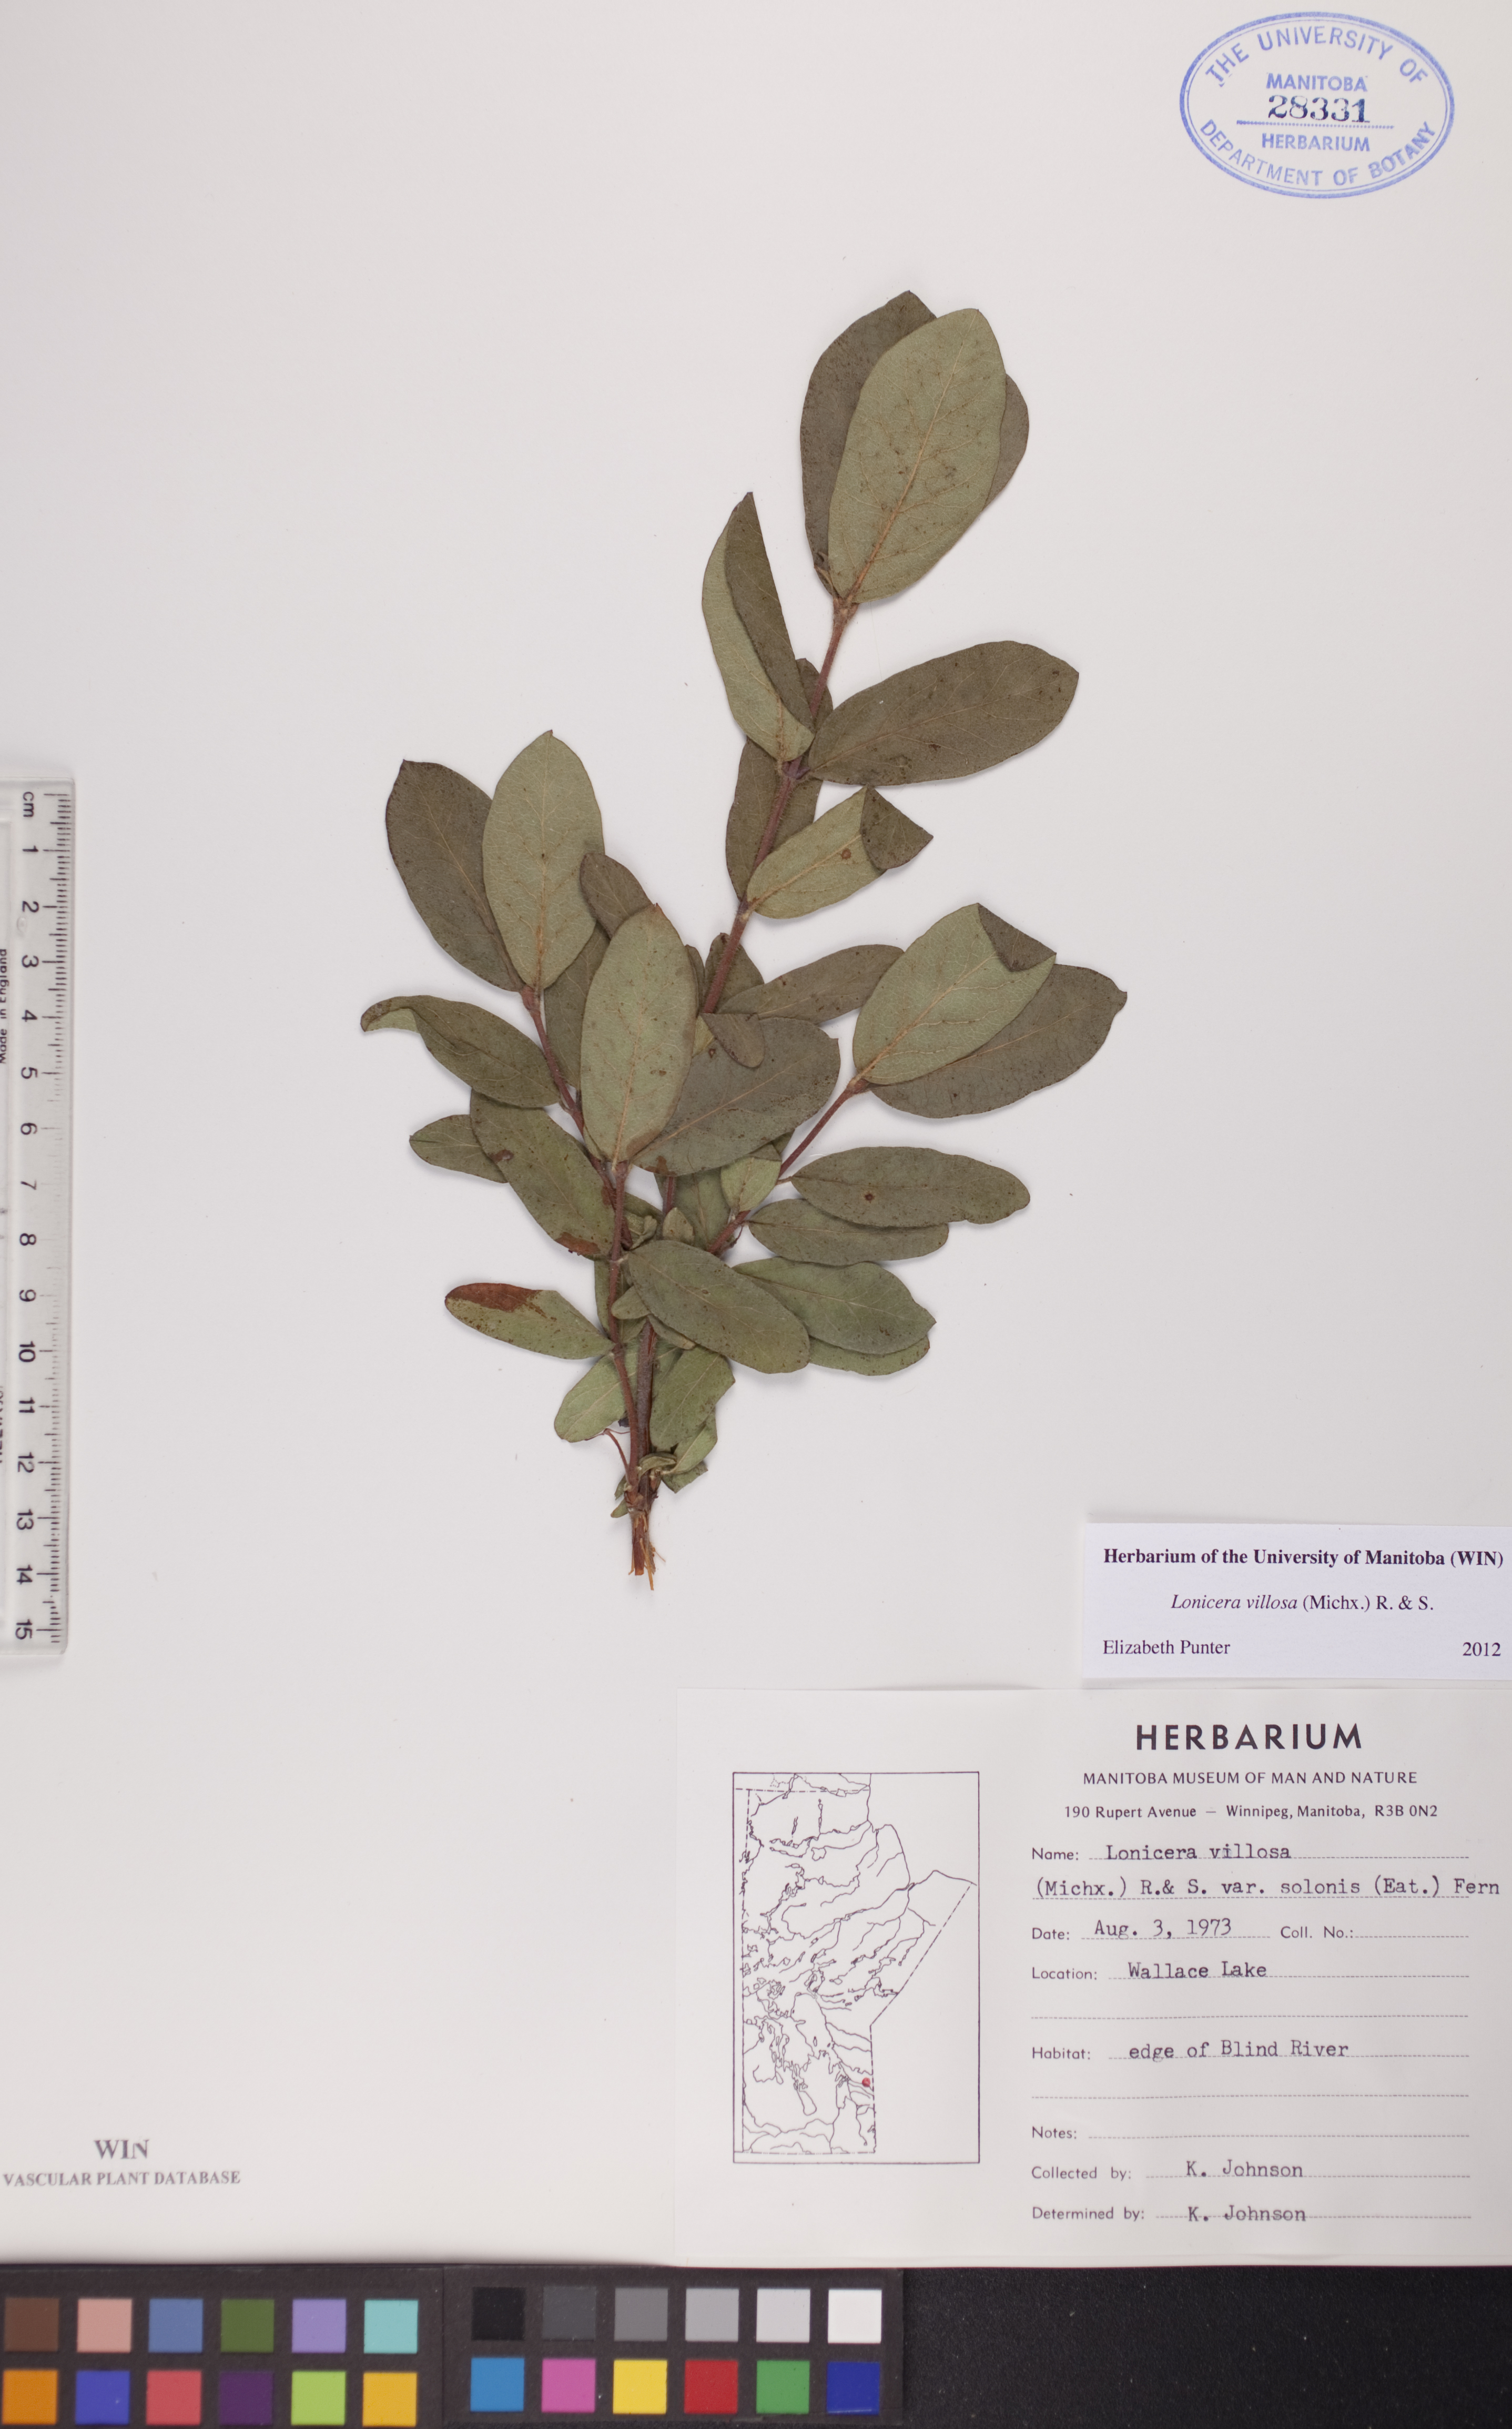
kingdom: Plantae
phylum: Tracheophyta
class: Magnoliopsida
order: Dipsacales
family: Caprifoliaceae
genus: Lonicera
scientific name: Lonicera villosa
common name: Mountain fly-honeysuckle
